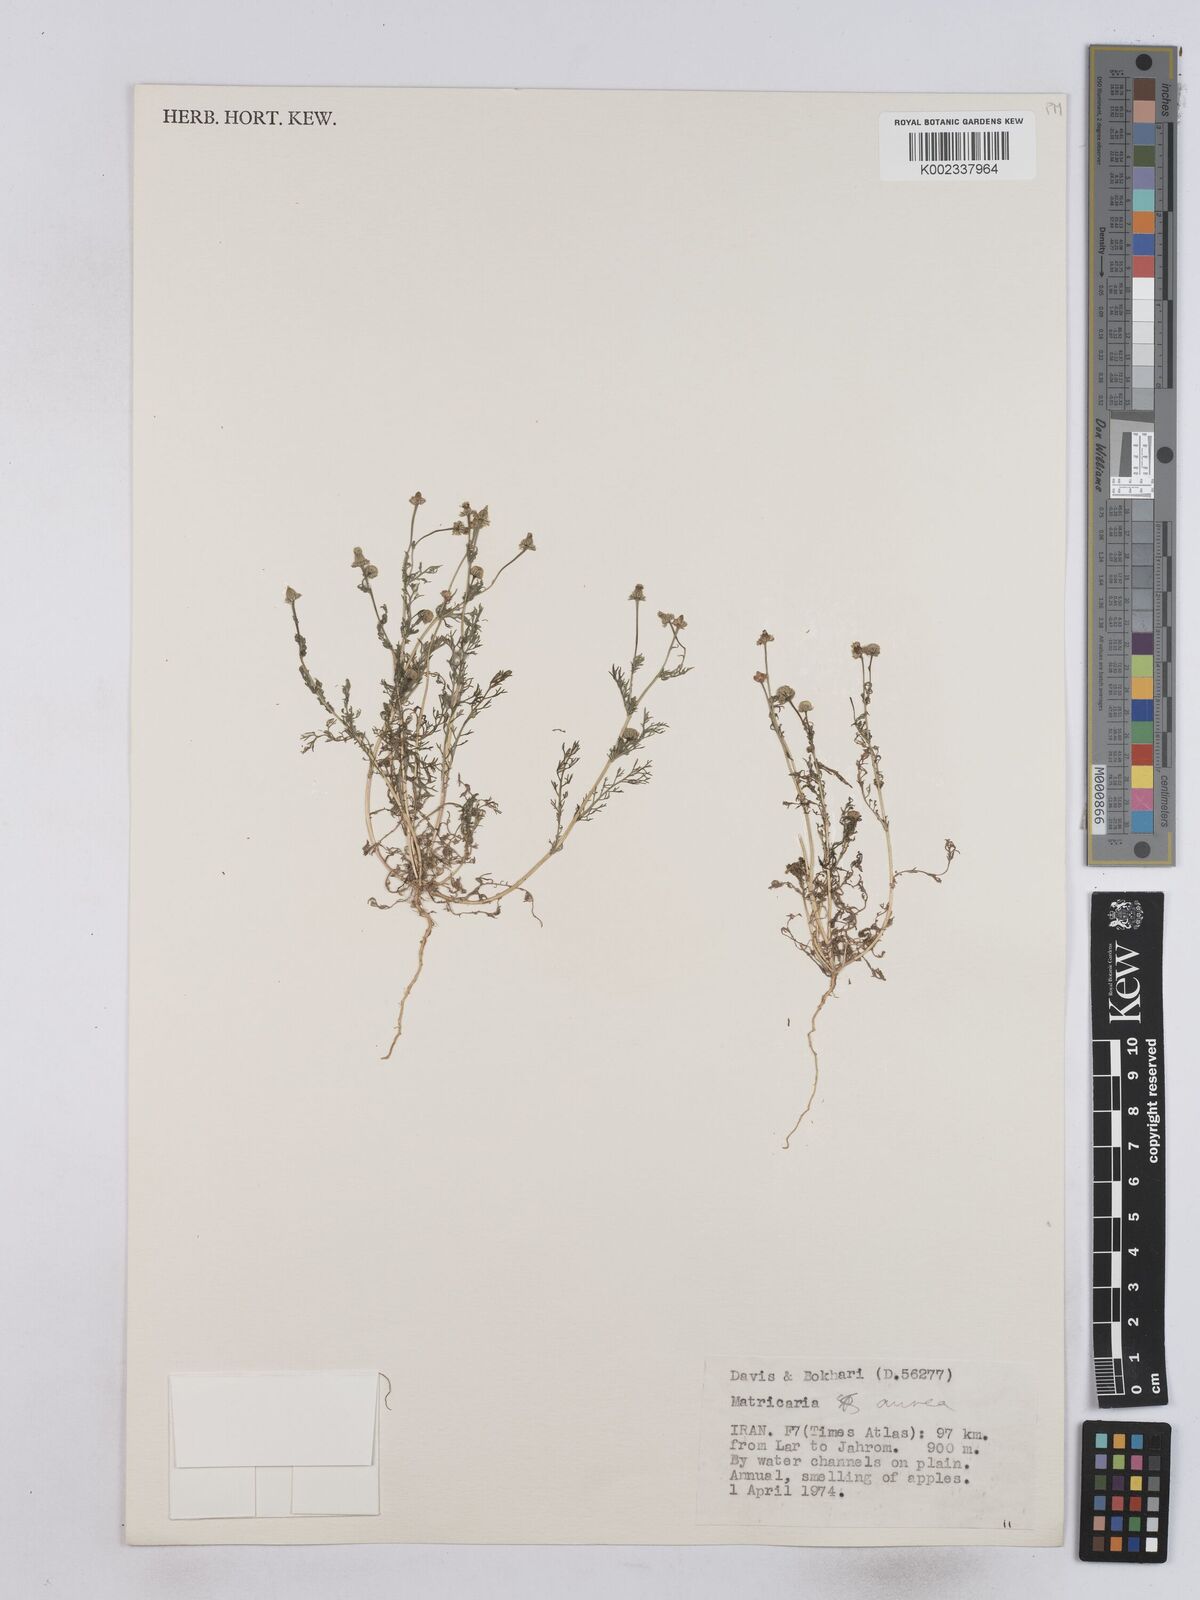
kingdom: Plantae
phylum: Tracheophyta
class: Magnoliopsida
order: Asterales
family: Asteraceae
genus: Matricaria
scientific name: Matricaria aurea
